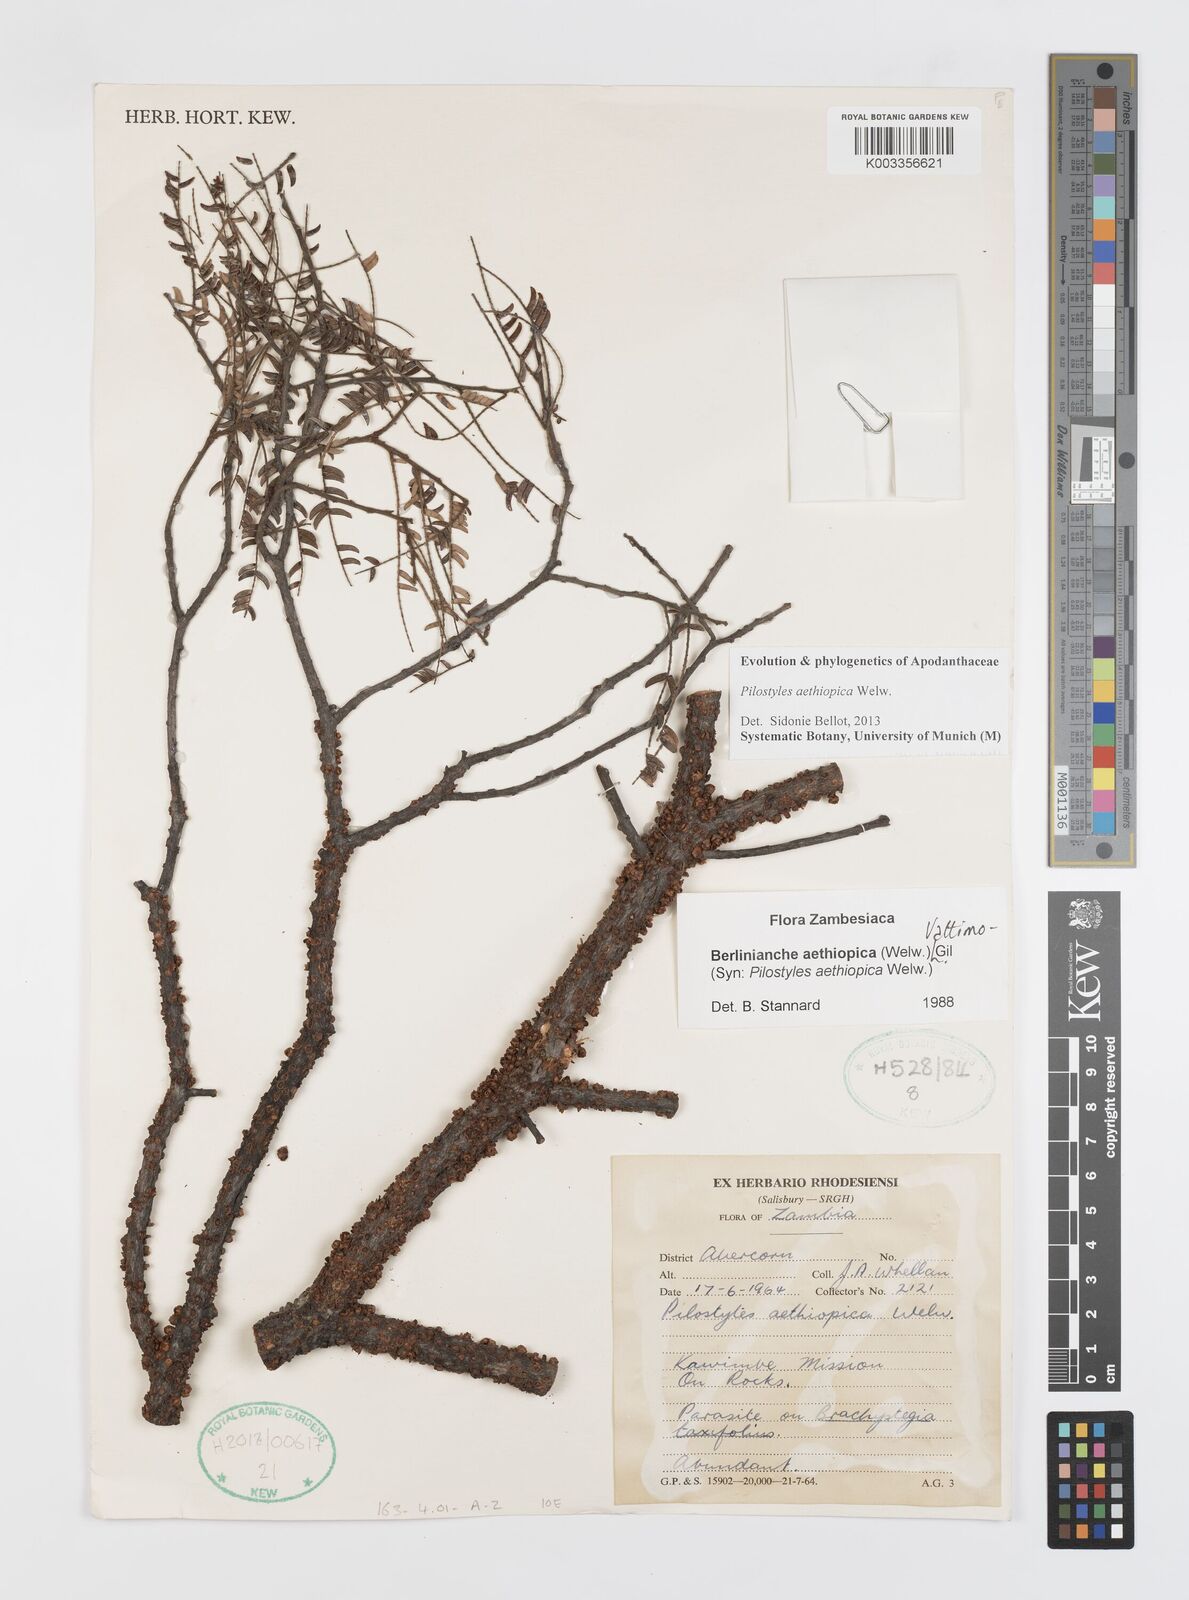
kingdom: Plantae
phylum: Tracheophyta
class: Magnoliopsida
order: Cucurbitales
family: Apodanthaceae
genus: Pilostyles
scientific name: Pilostyles aethiopica
